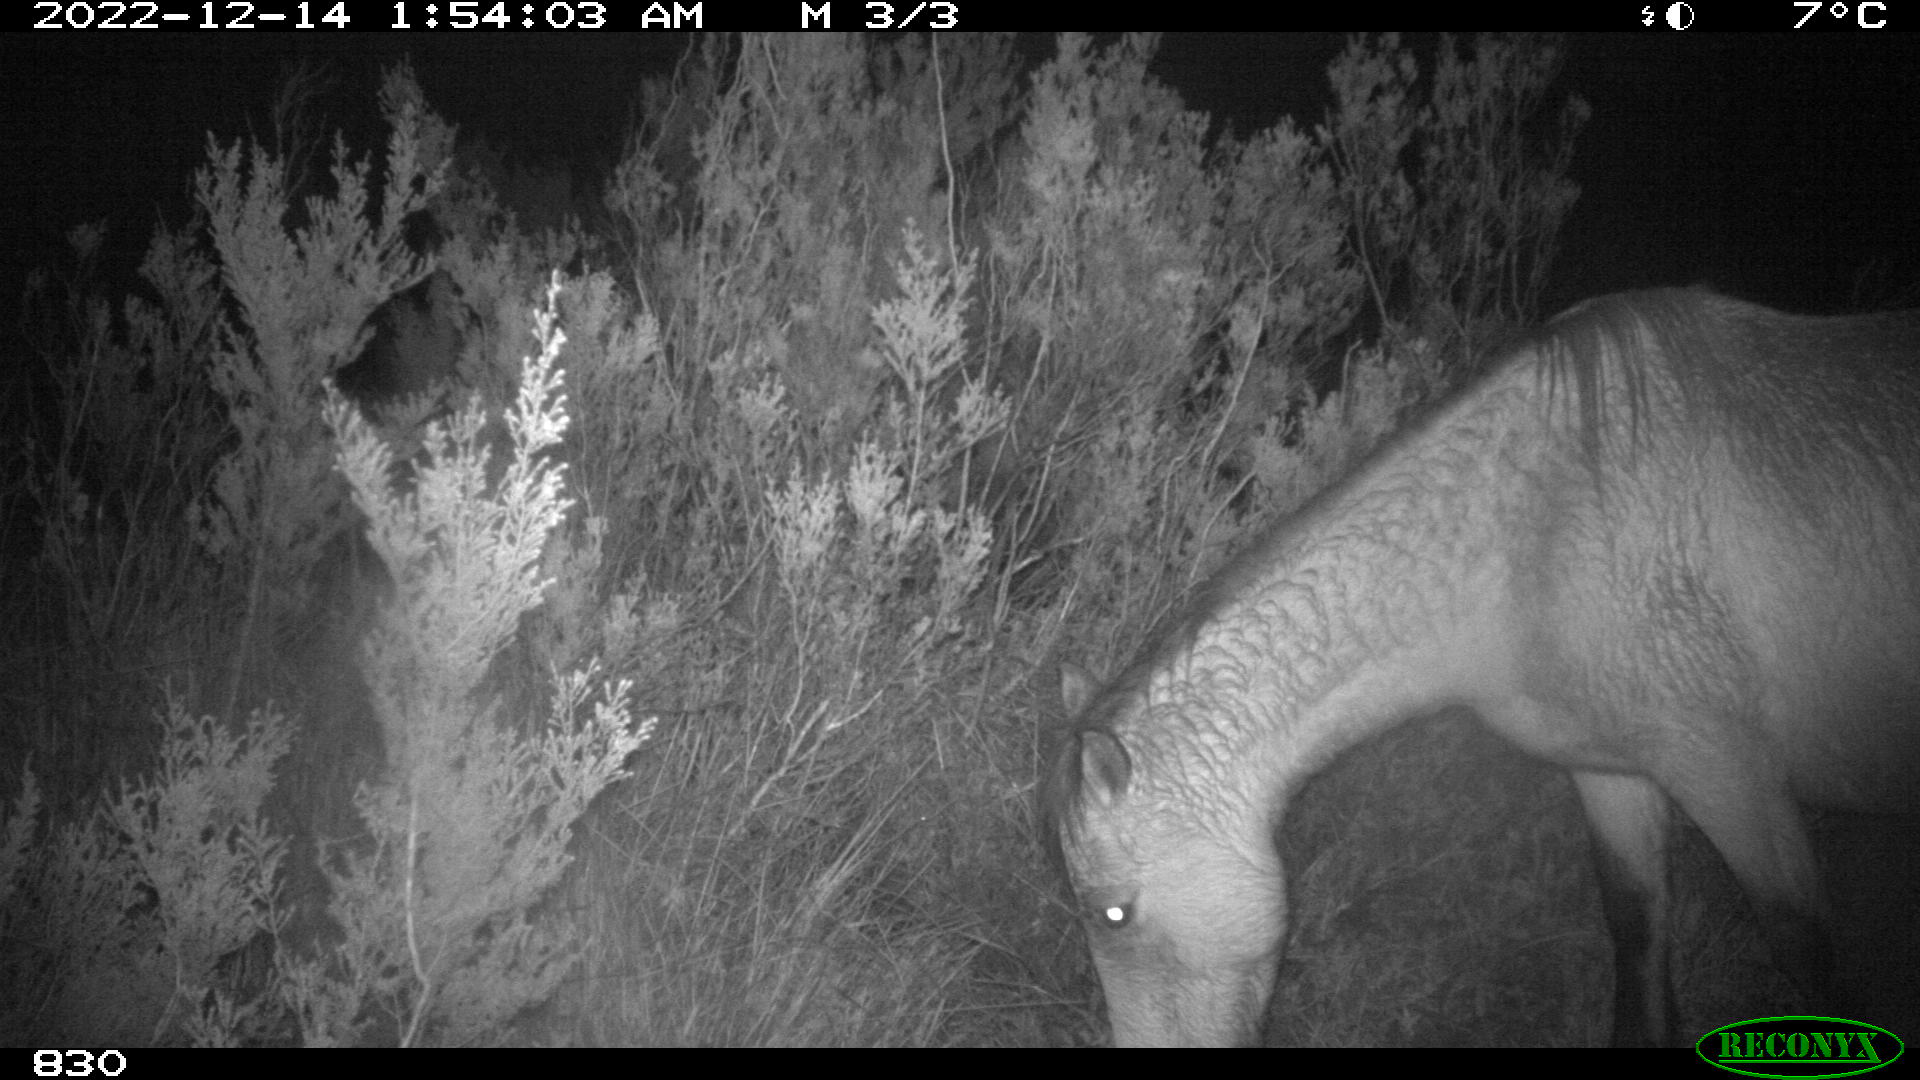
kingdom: Animalia
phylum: Chordata
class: Mammalia
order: Perissodactyla
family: Equidae
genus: Equus
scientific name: Equus caballus
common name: Horse
